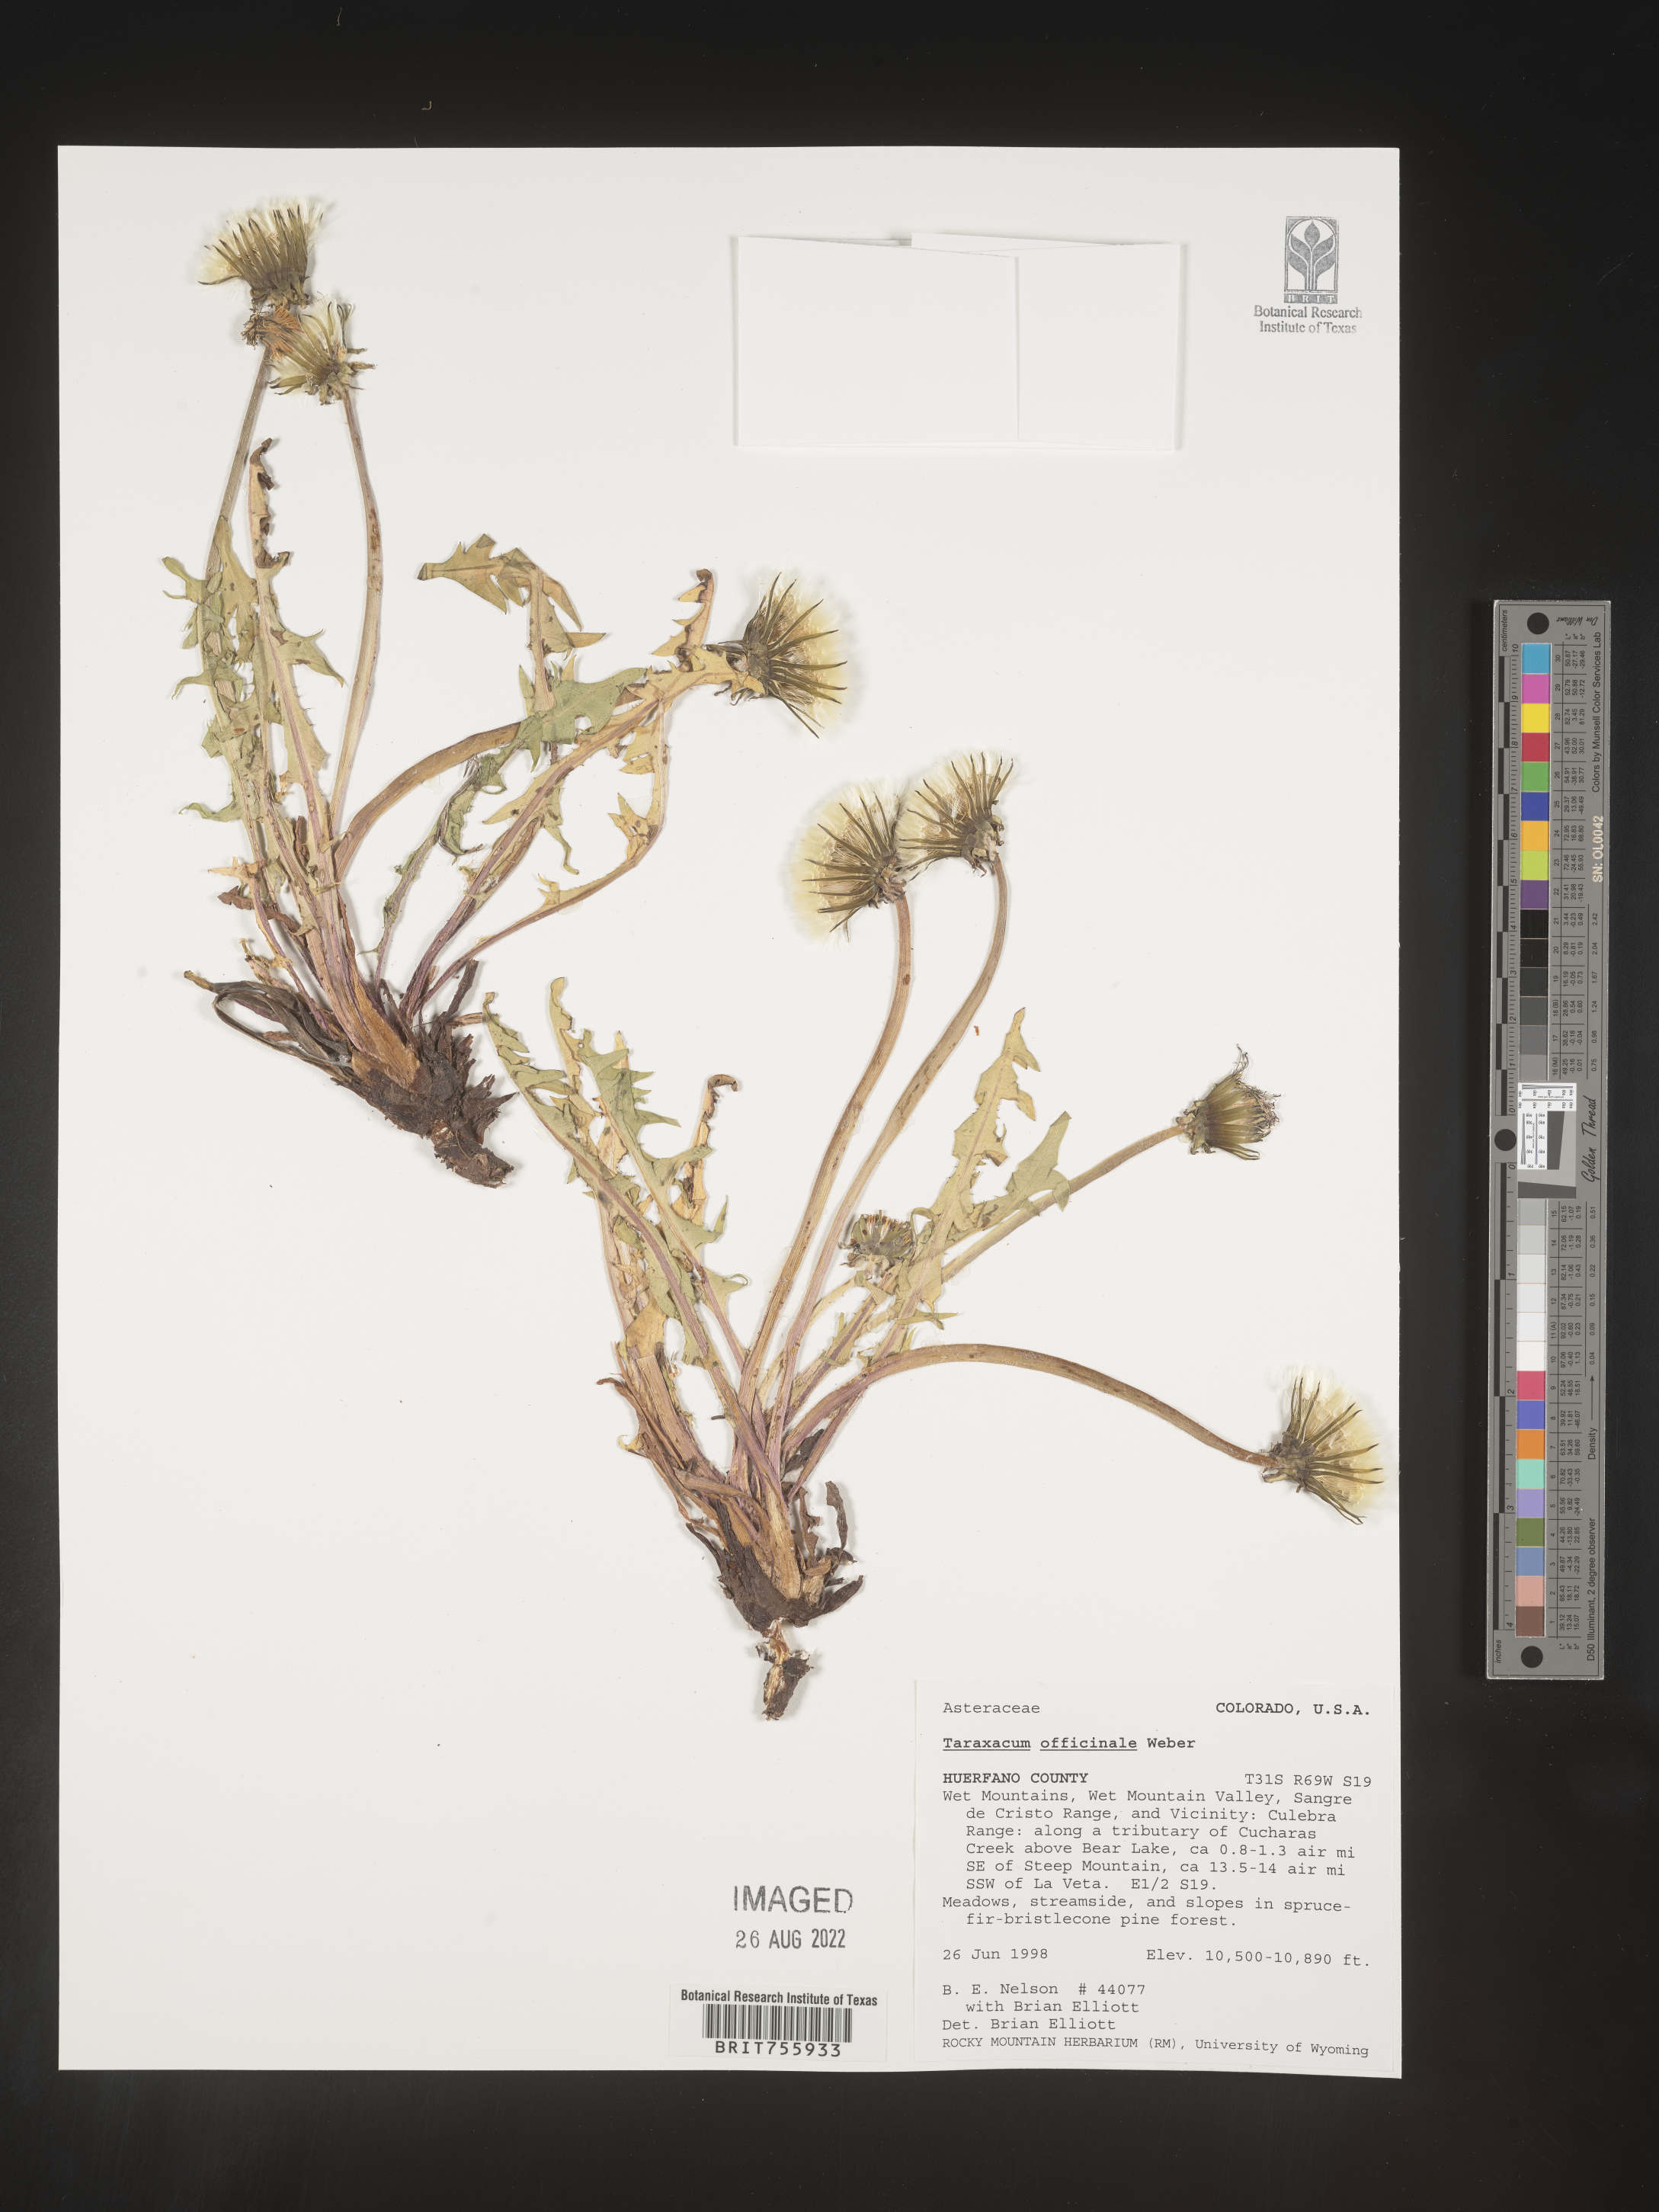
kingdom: Plantae
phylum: Tracheophyta
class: Magnoliopsida
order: Asterales
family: Asteraceae
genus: Taraxacum
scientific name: Taraxacum officinale
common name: Common dandelion
